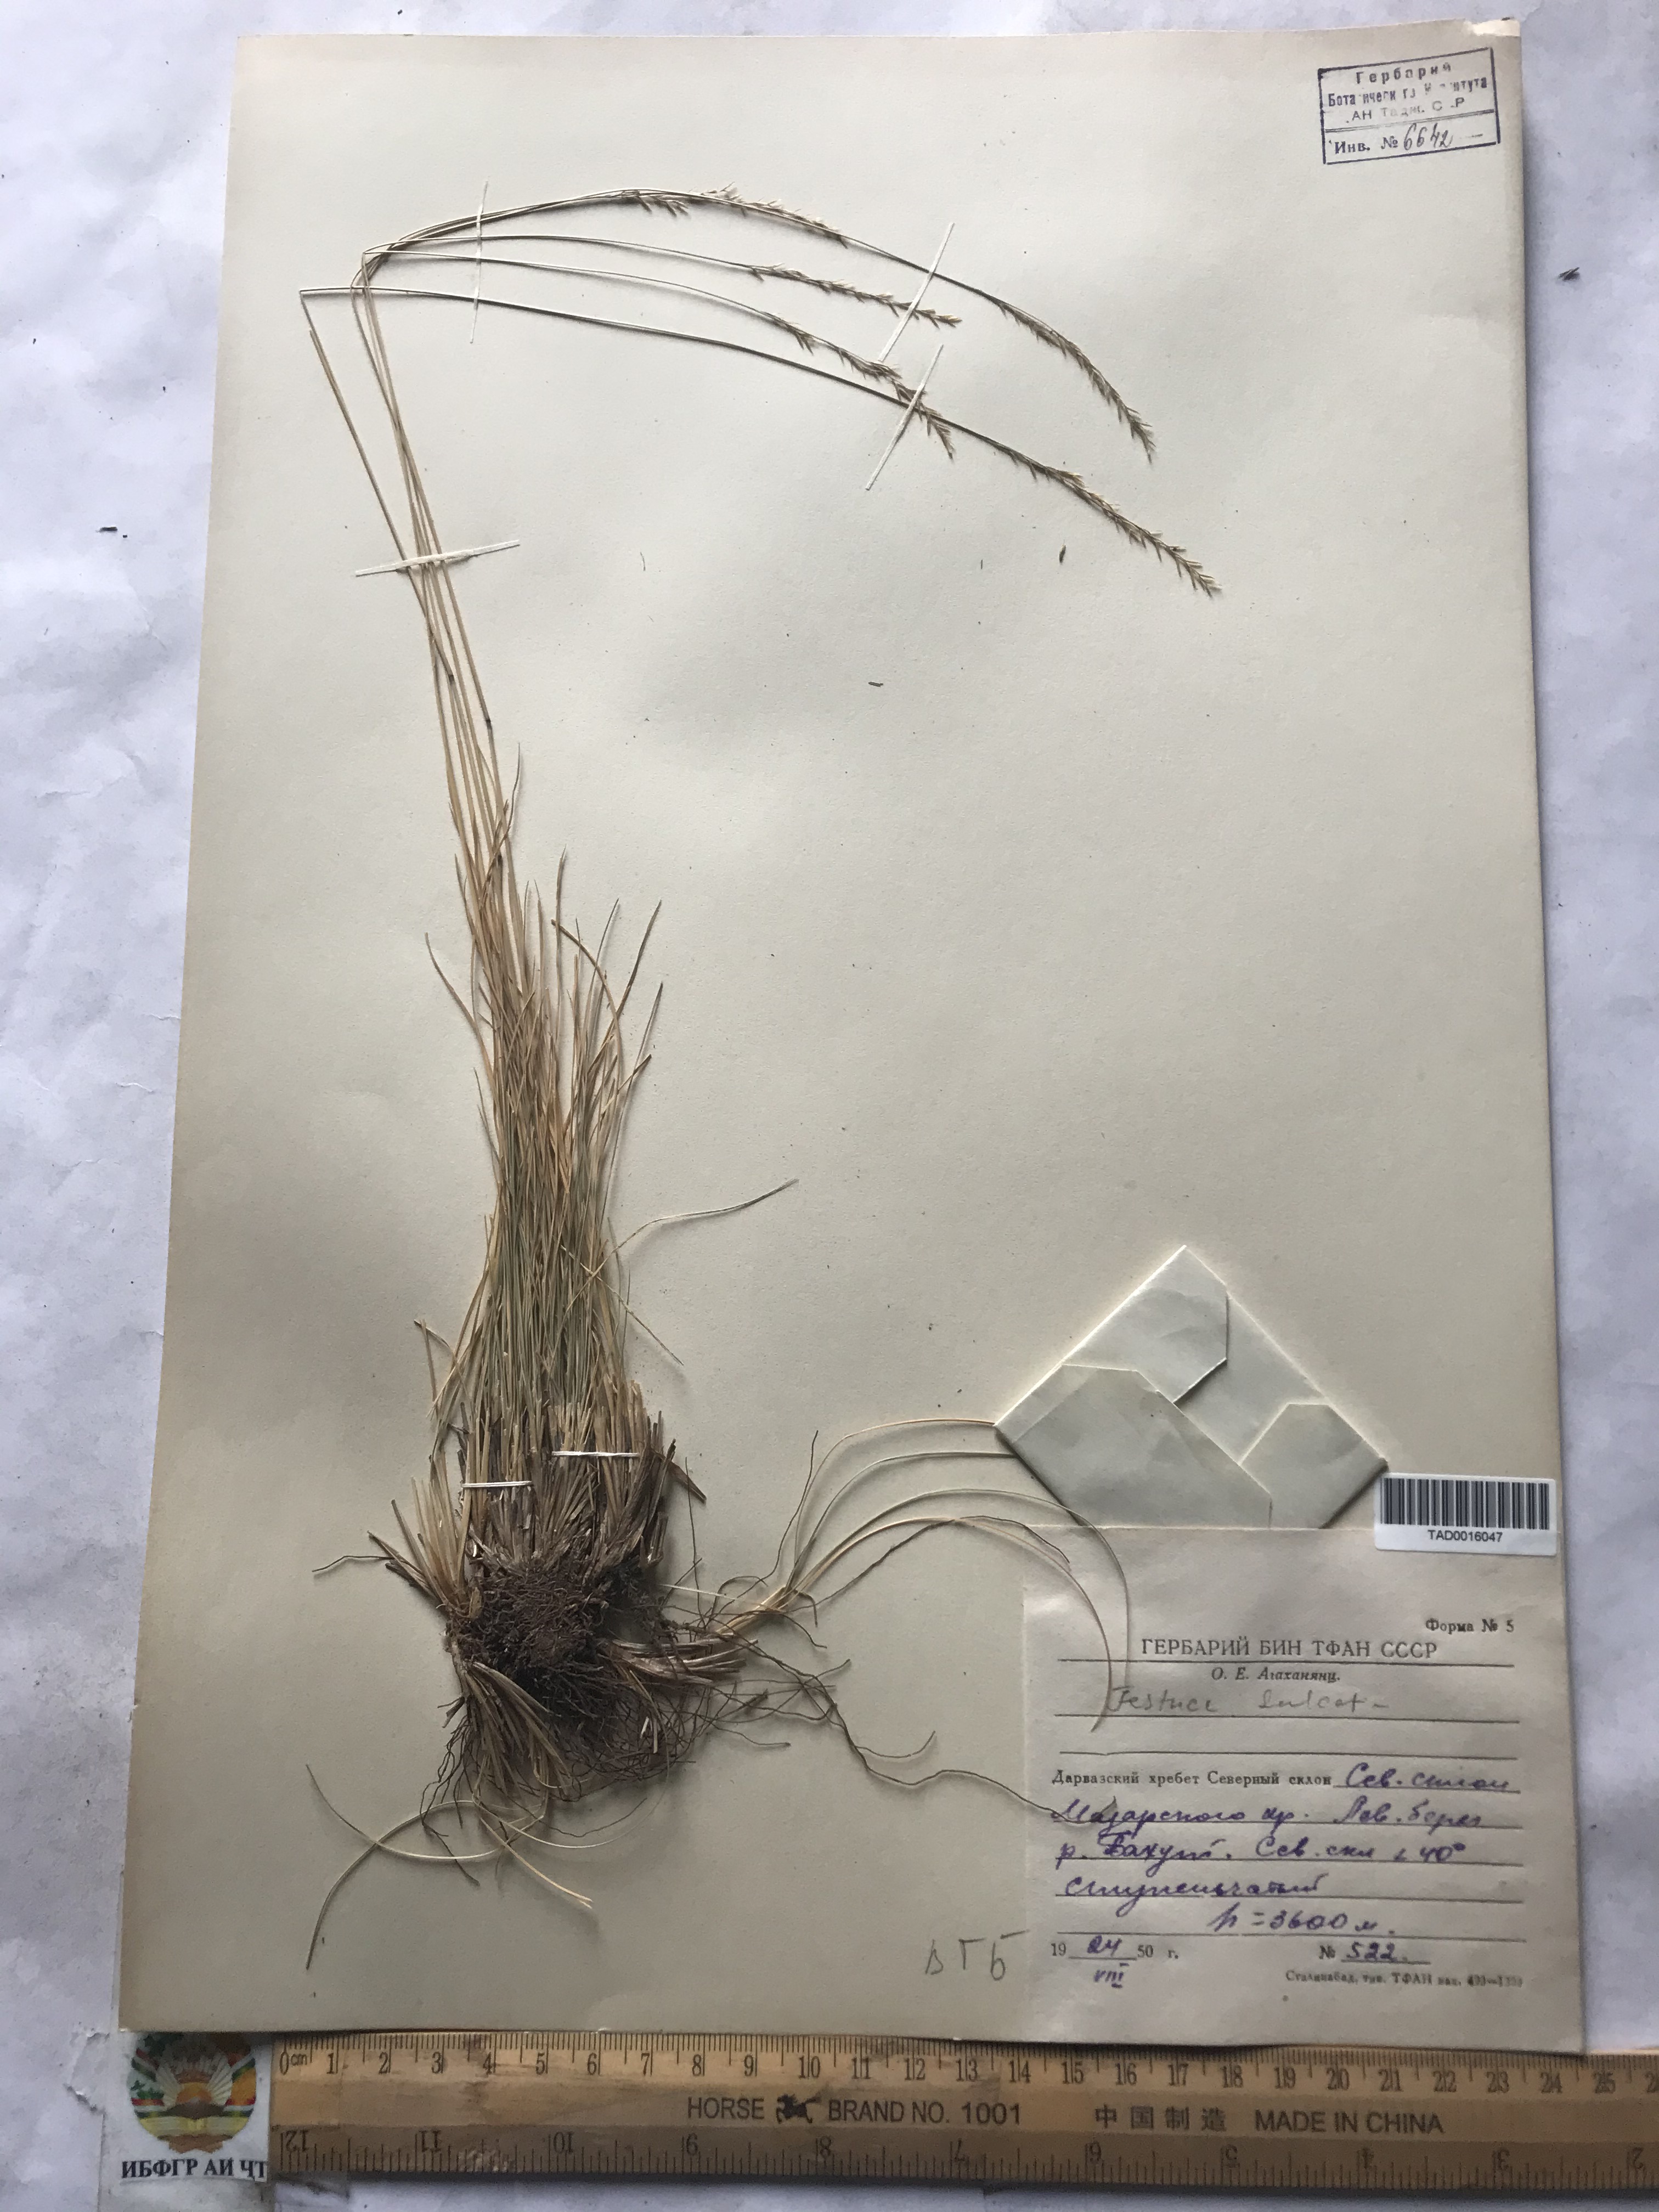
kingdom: Plantae
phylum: Tracheophyta
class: Liliopsida
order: Poales
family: Poaceae
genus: Festuca
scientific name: Festuca sulcata
